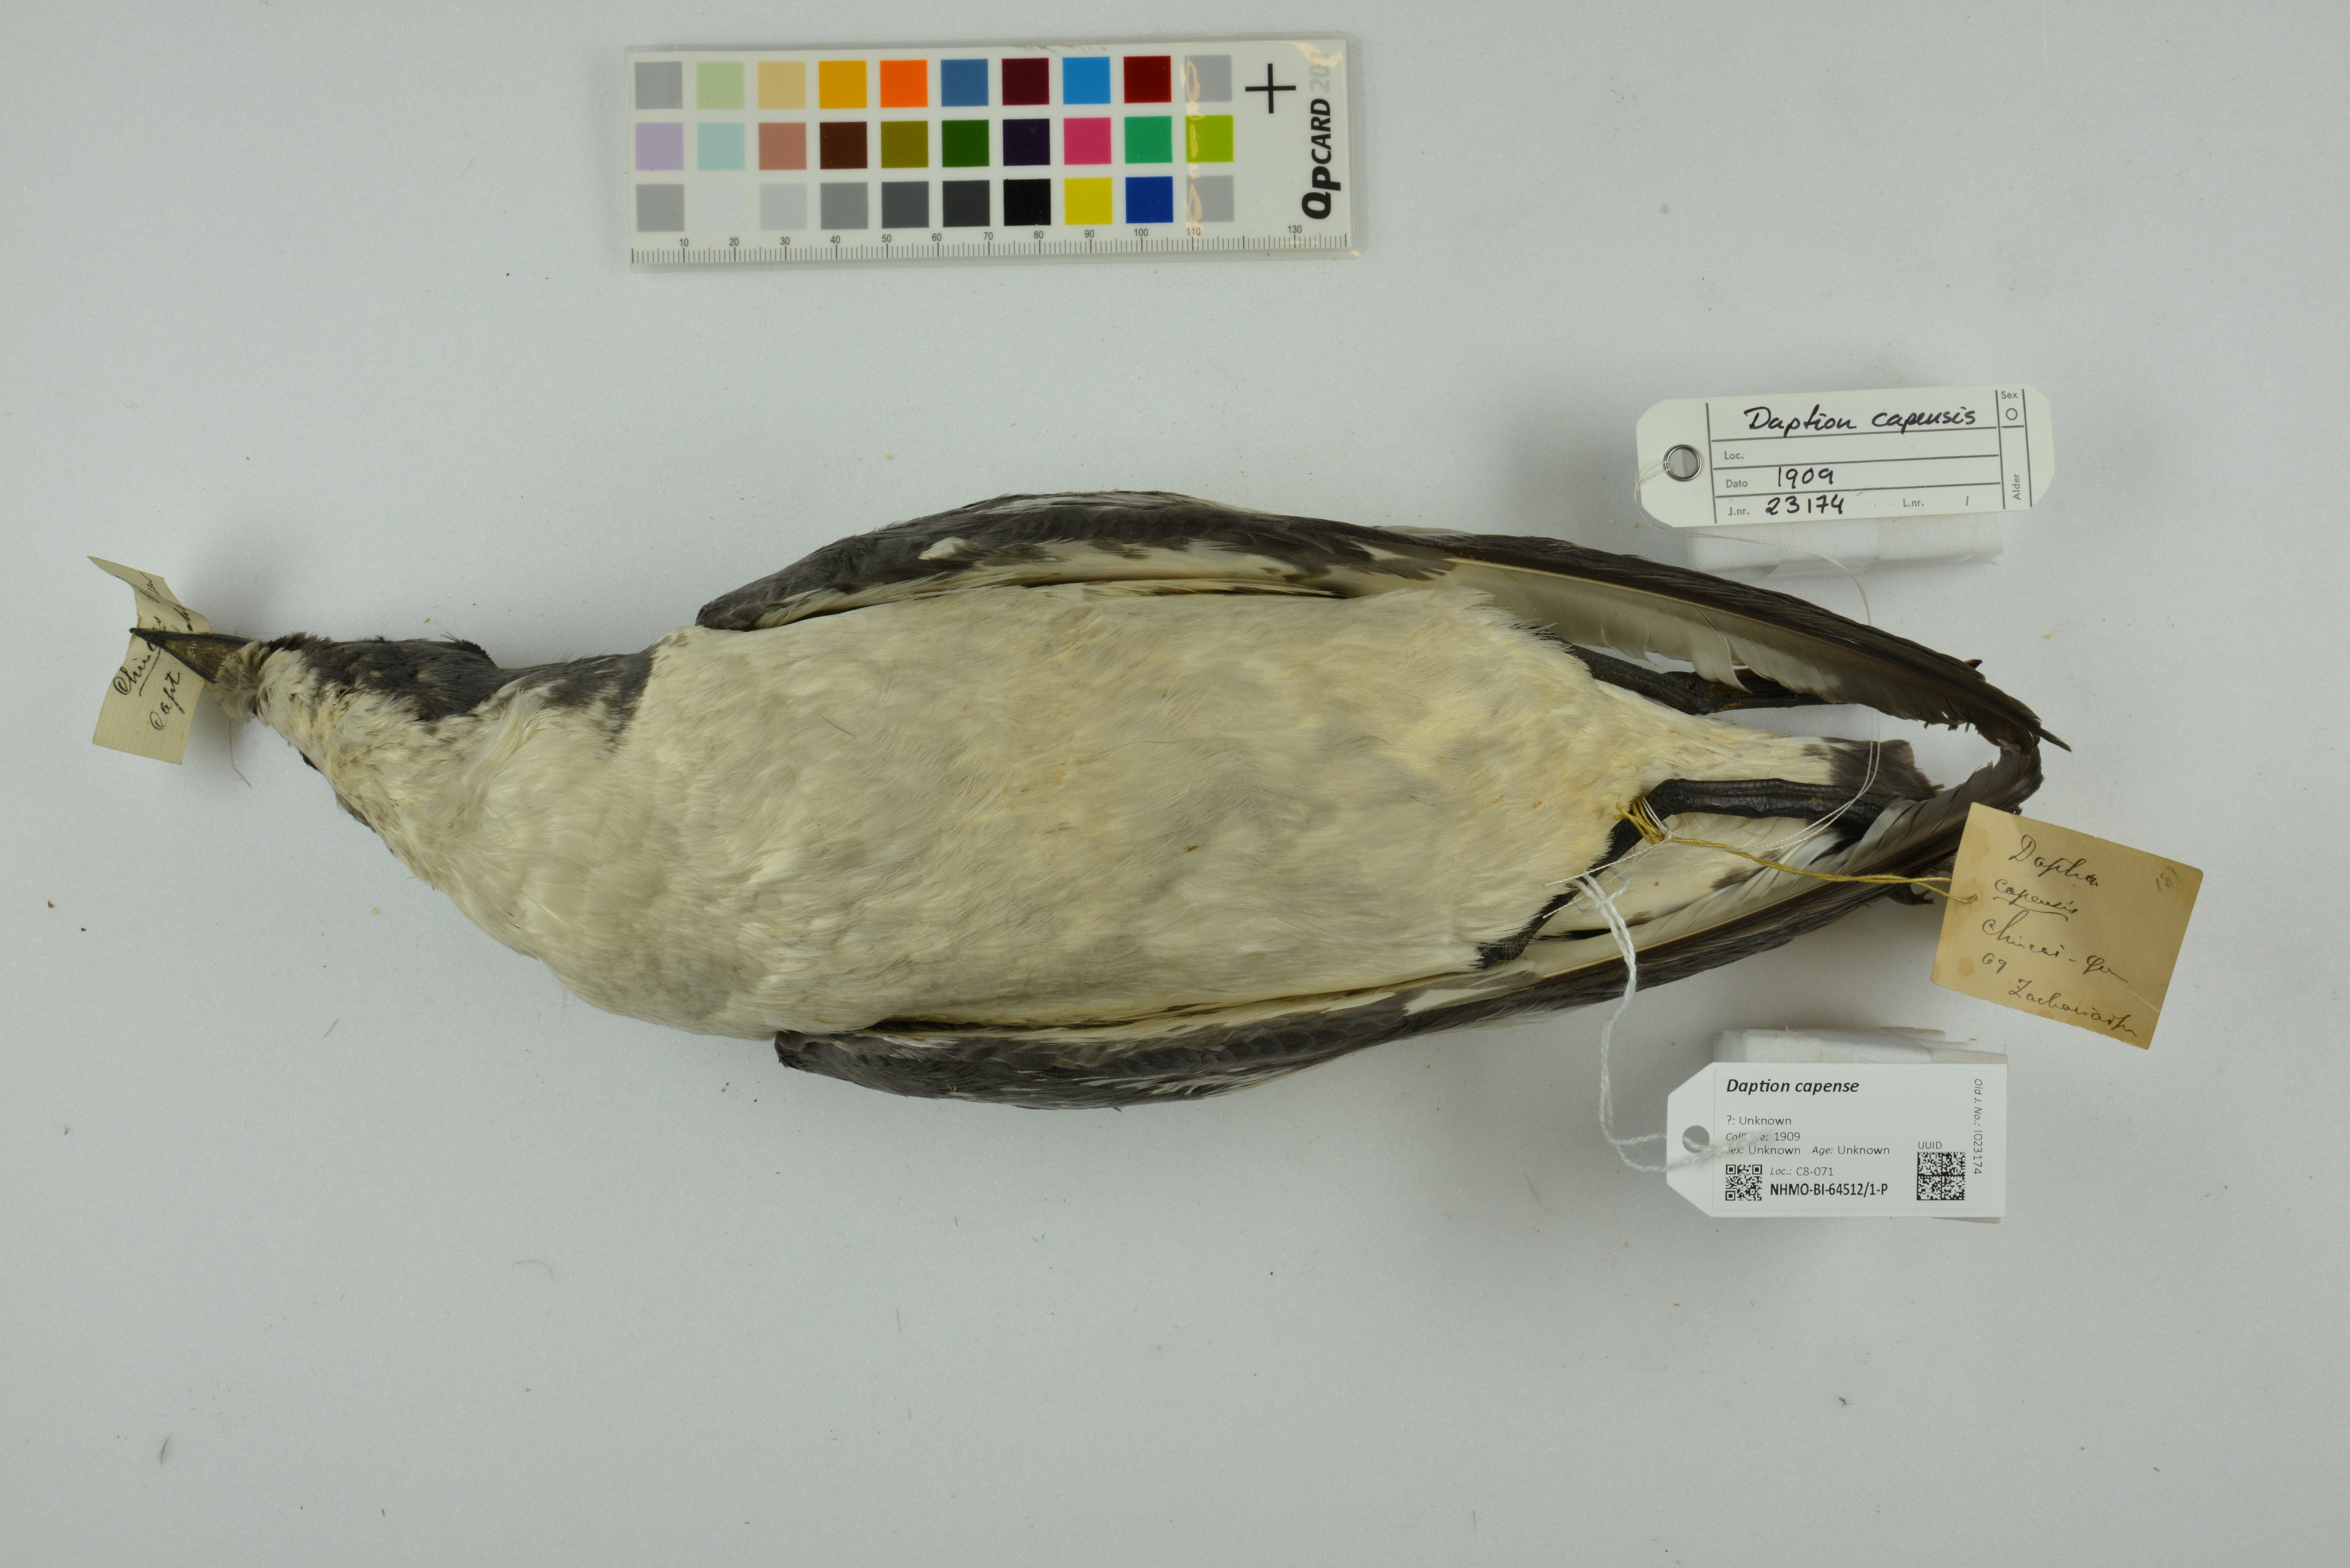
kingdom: Animalia
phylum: Chordata
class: Aves
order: Procellariiformes
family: Procellariidae
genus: Daption
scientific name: Daption capense
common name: Cape petrel
